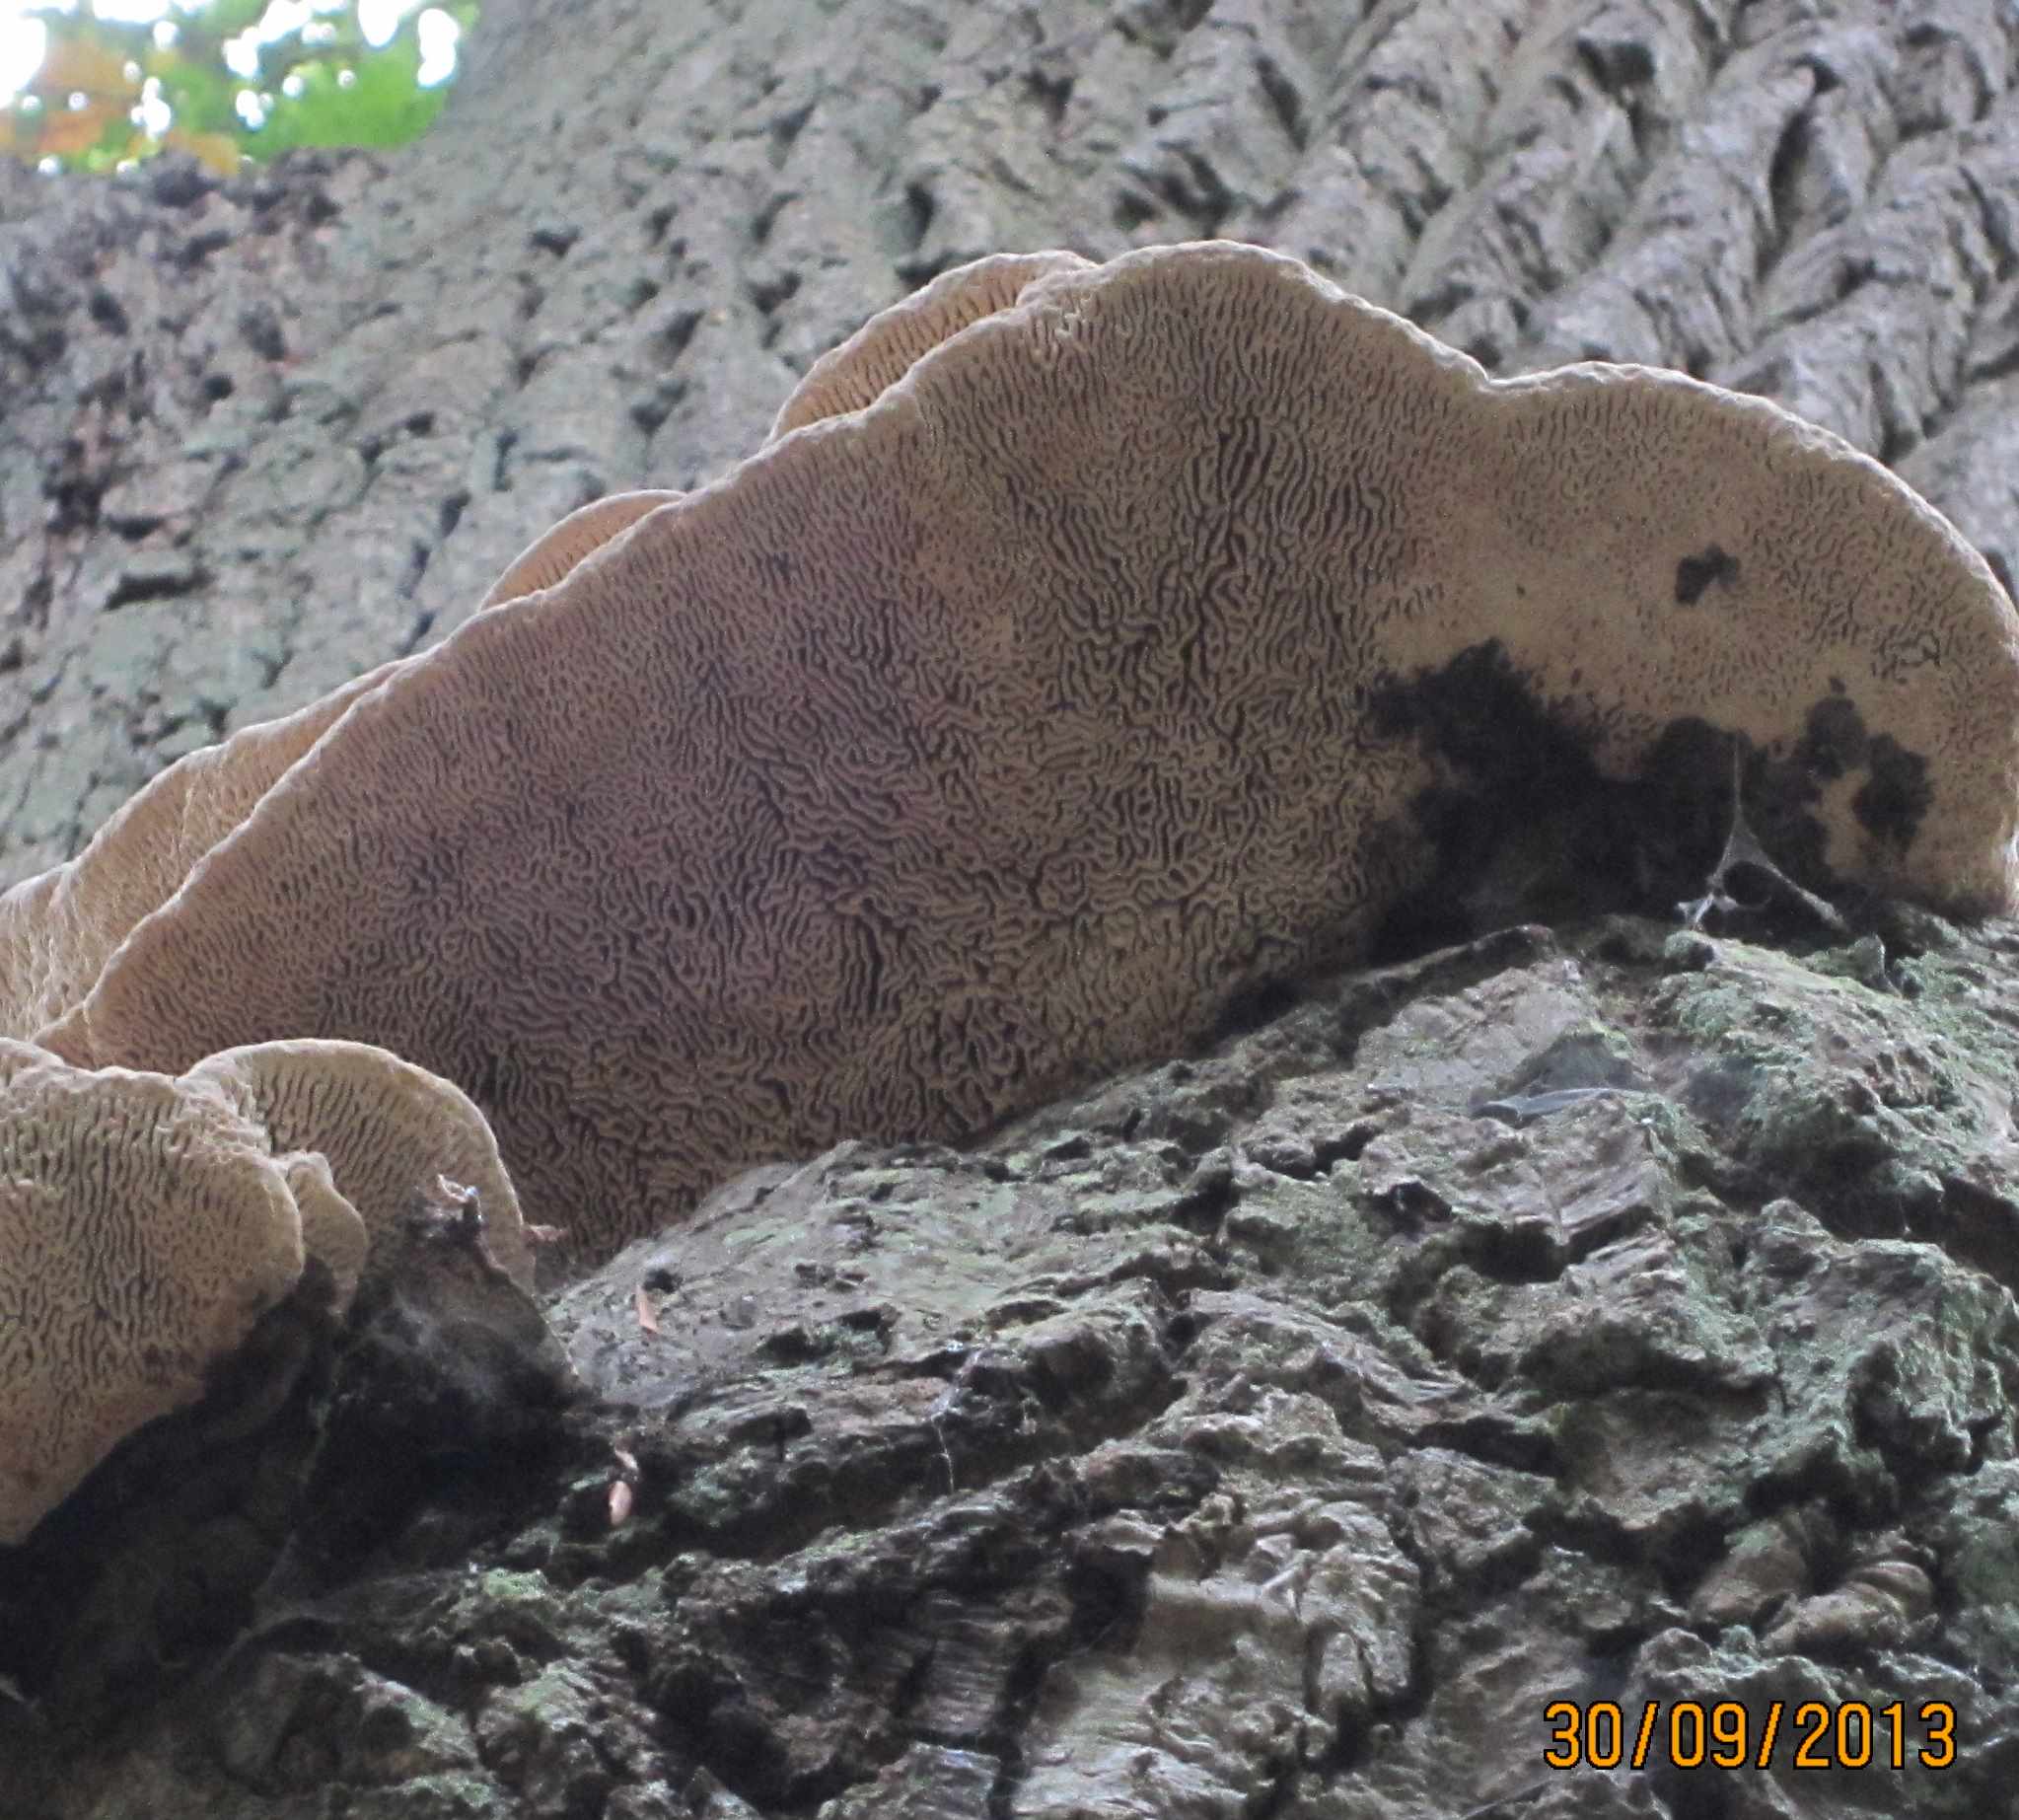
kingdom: Fungi
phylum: Basidiomycota
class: Agaricomycetes
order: Polyporales
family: Fomitopsidaceae
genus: Daedalea
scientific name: Daedalea quercina
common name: ege-labyrintsvamp
